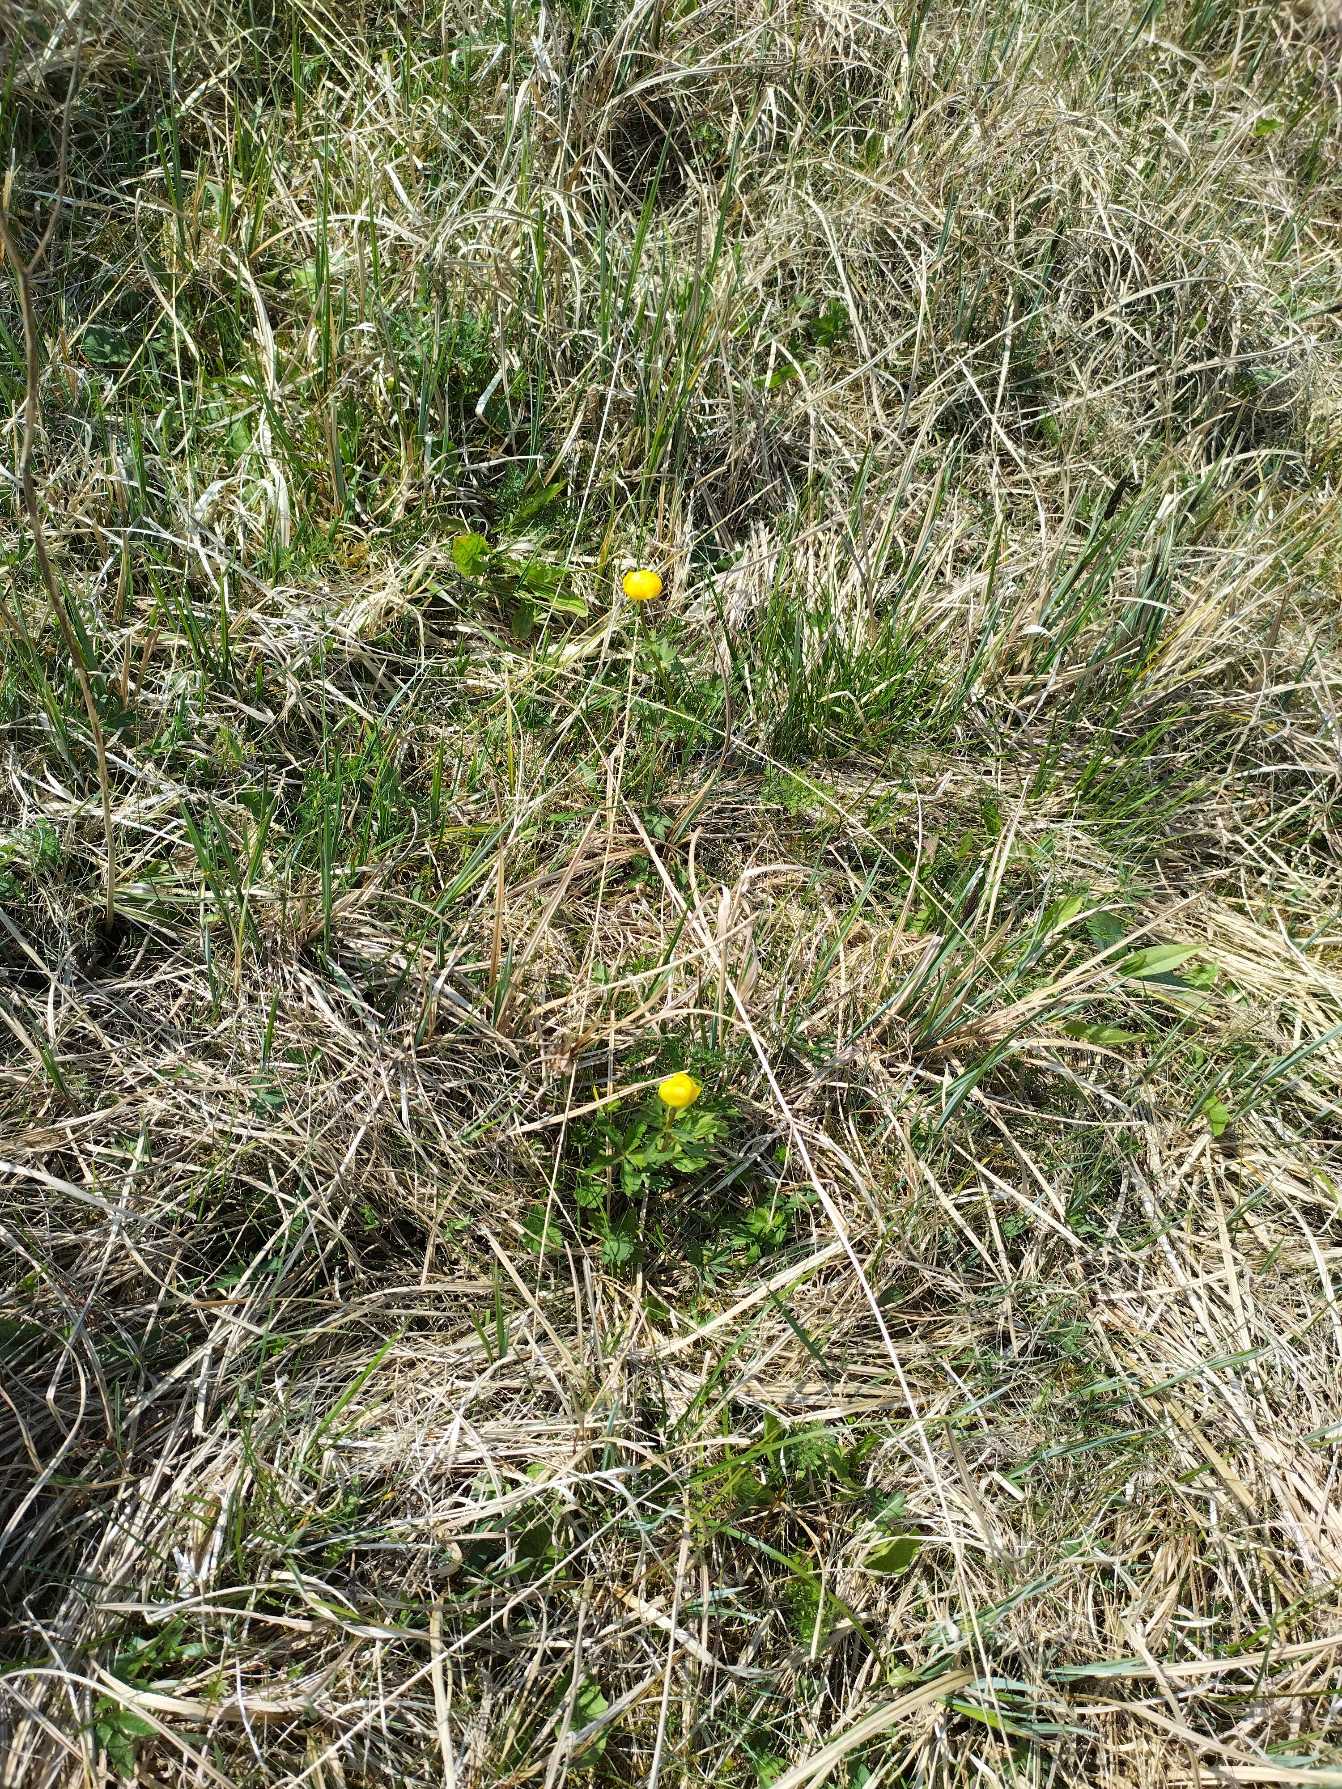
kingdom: Plantae
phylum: Tracheophyta
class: Magnoliopsida
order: Ranunculales
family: Ranunculaceae
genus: Trollius
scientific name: Trollius europaeus
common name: Engblomme
